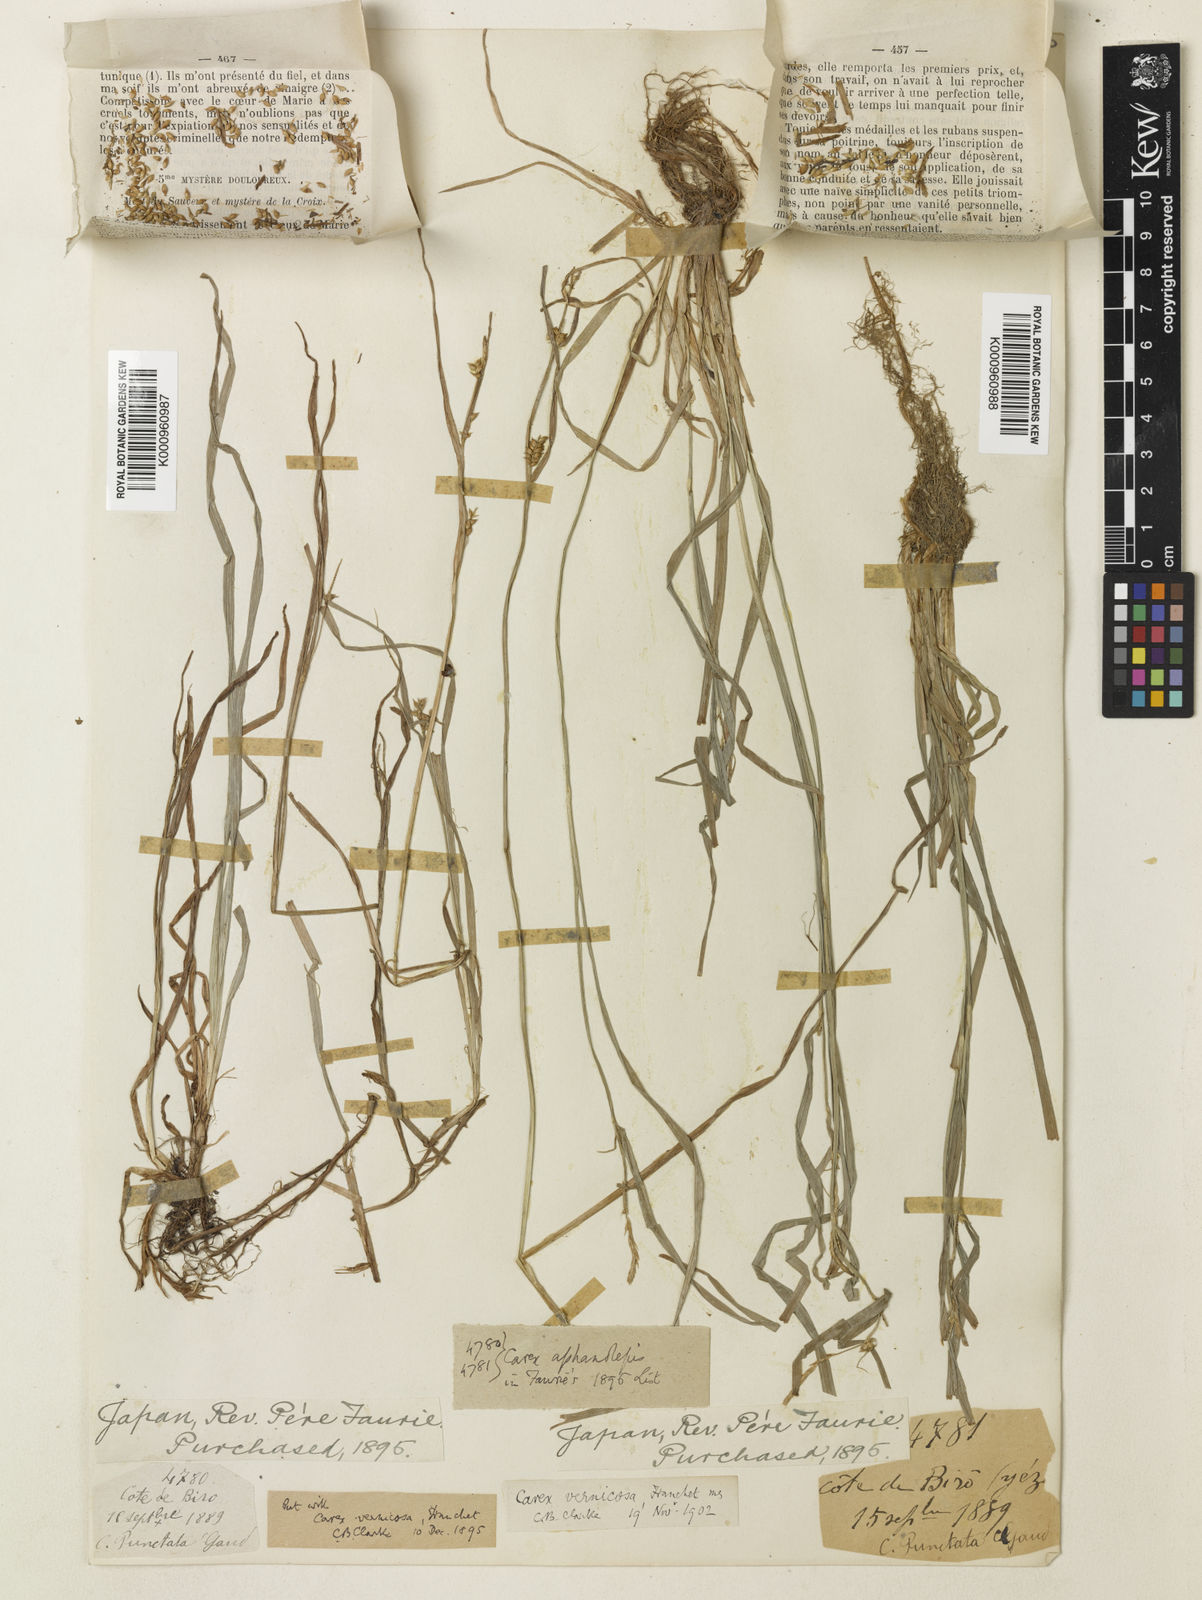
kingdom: Plantae
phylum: Tracheophyta
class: Liliopsida
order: Poales
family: Cyperaceae
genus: Carex
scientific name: Carex aphanolepis
